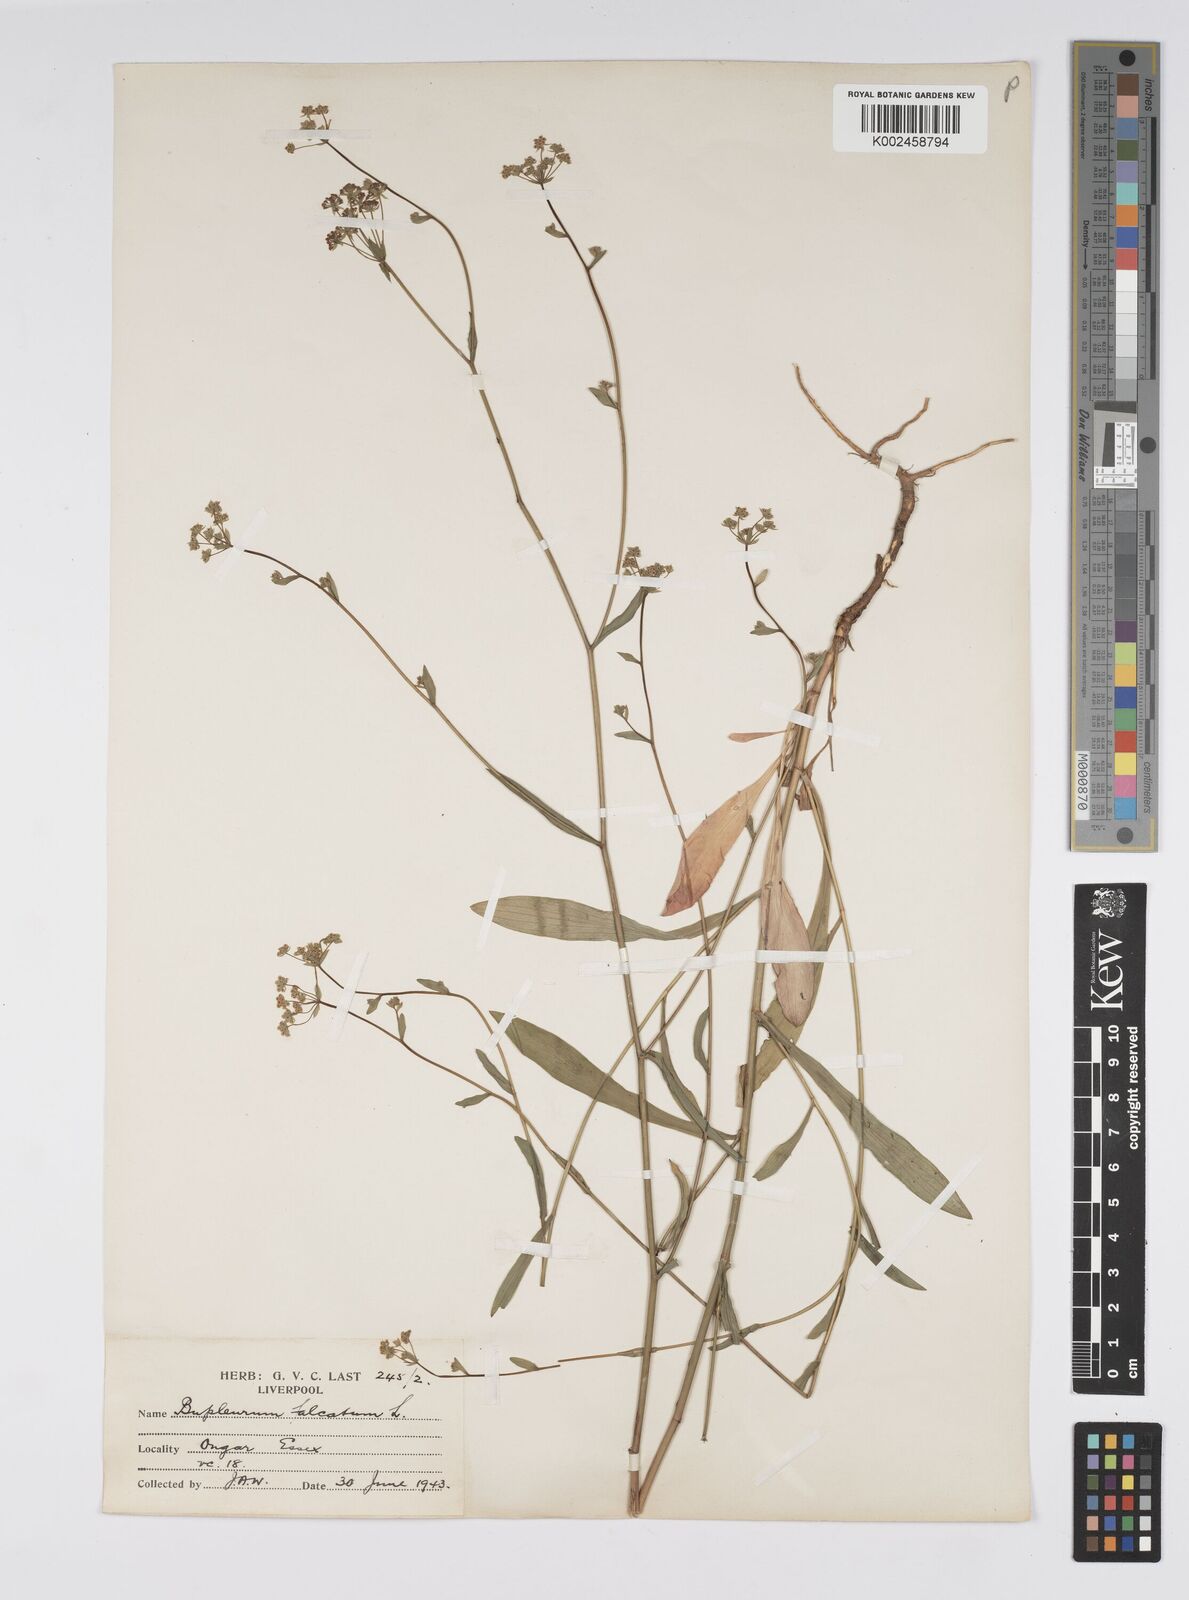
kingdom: Plantae
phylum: Tracheophyta
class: Magnoliopsida
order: Apiales
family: Apiaceae
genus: Bupleurum
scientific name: Bupleurum falcatum
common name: Sickle-leaved hare's-ear
